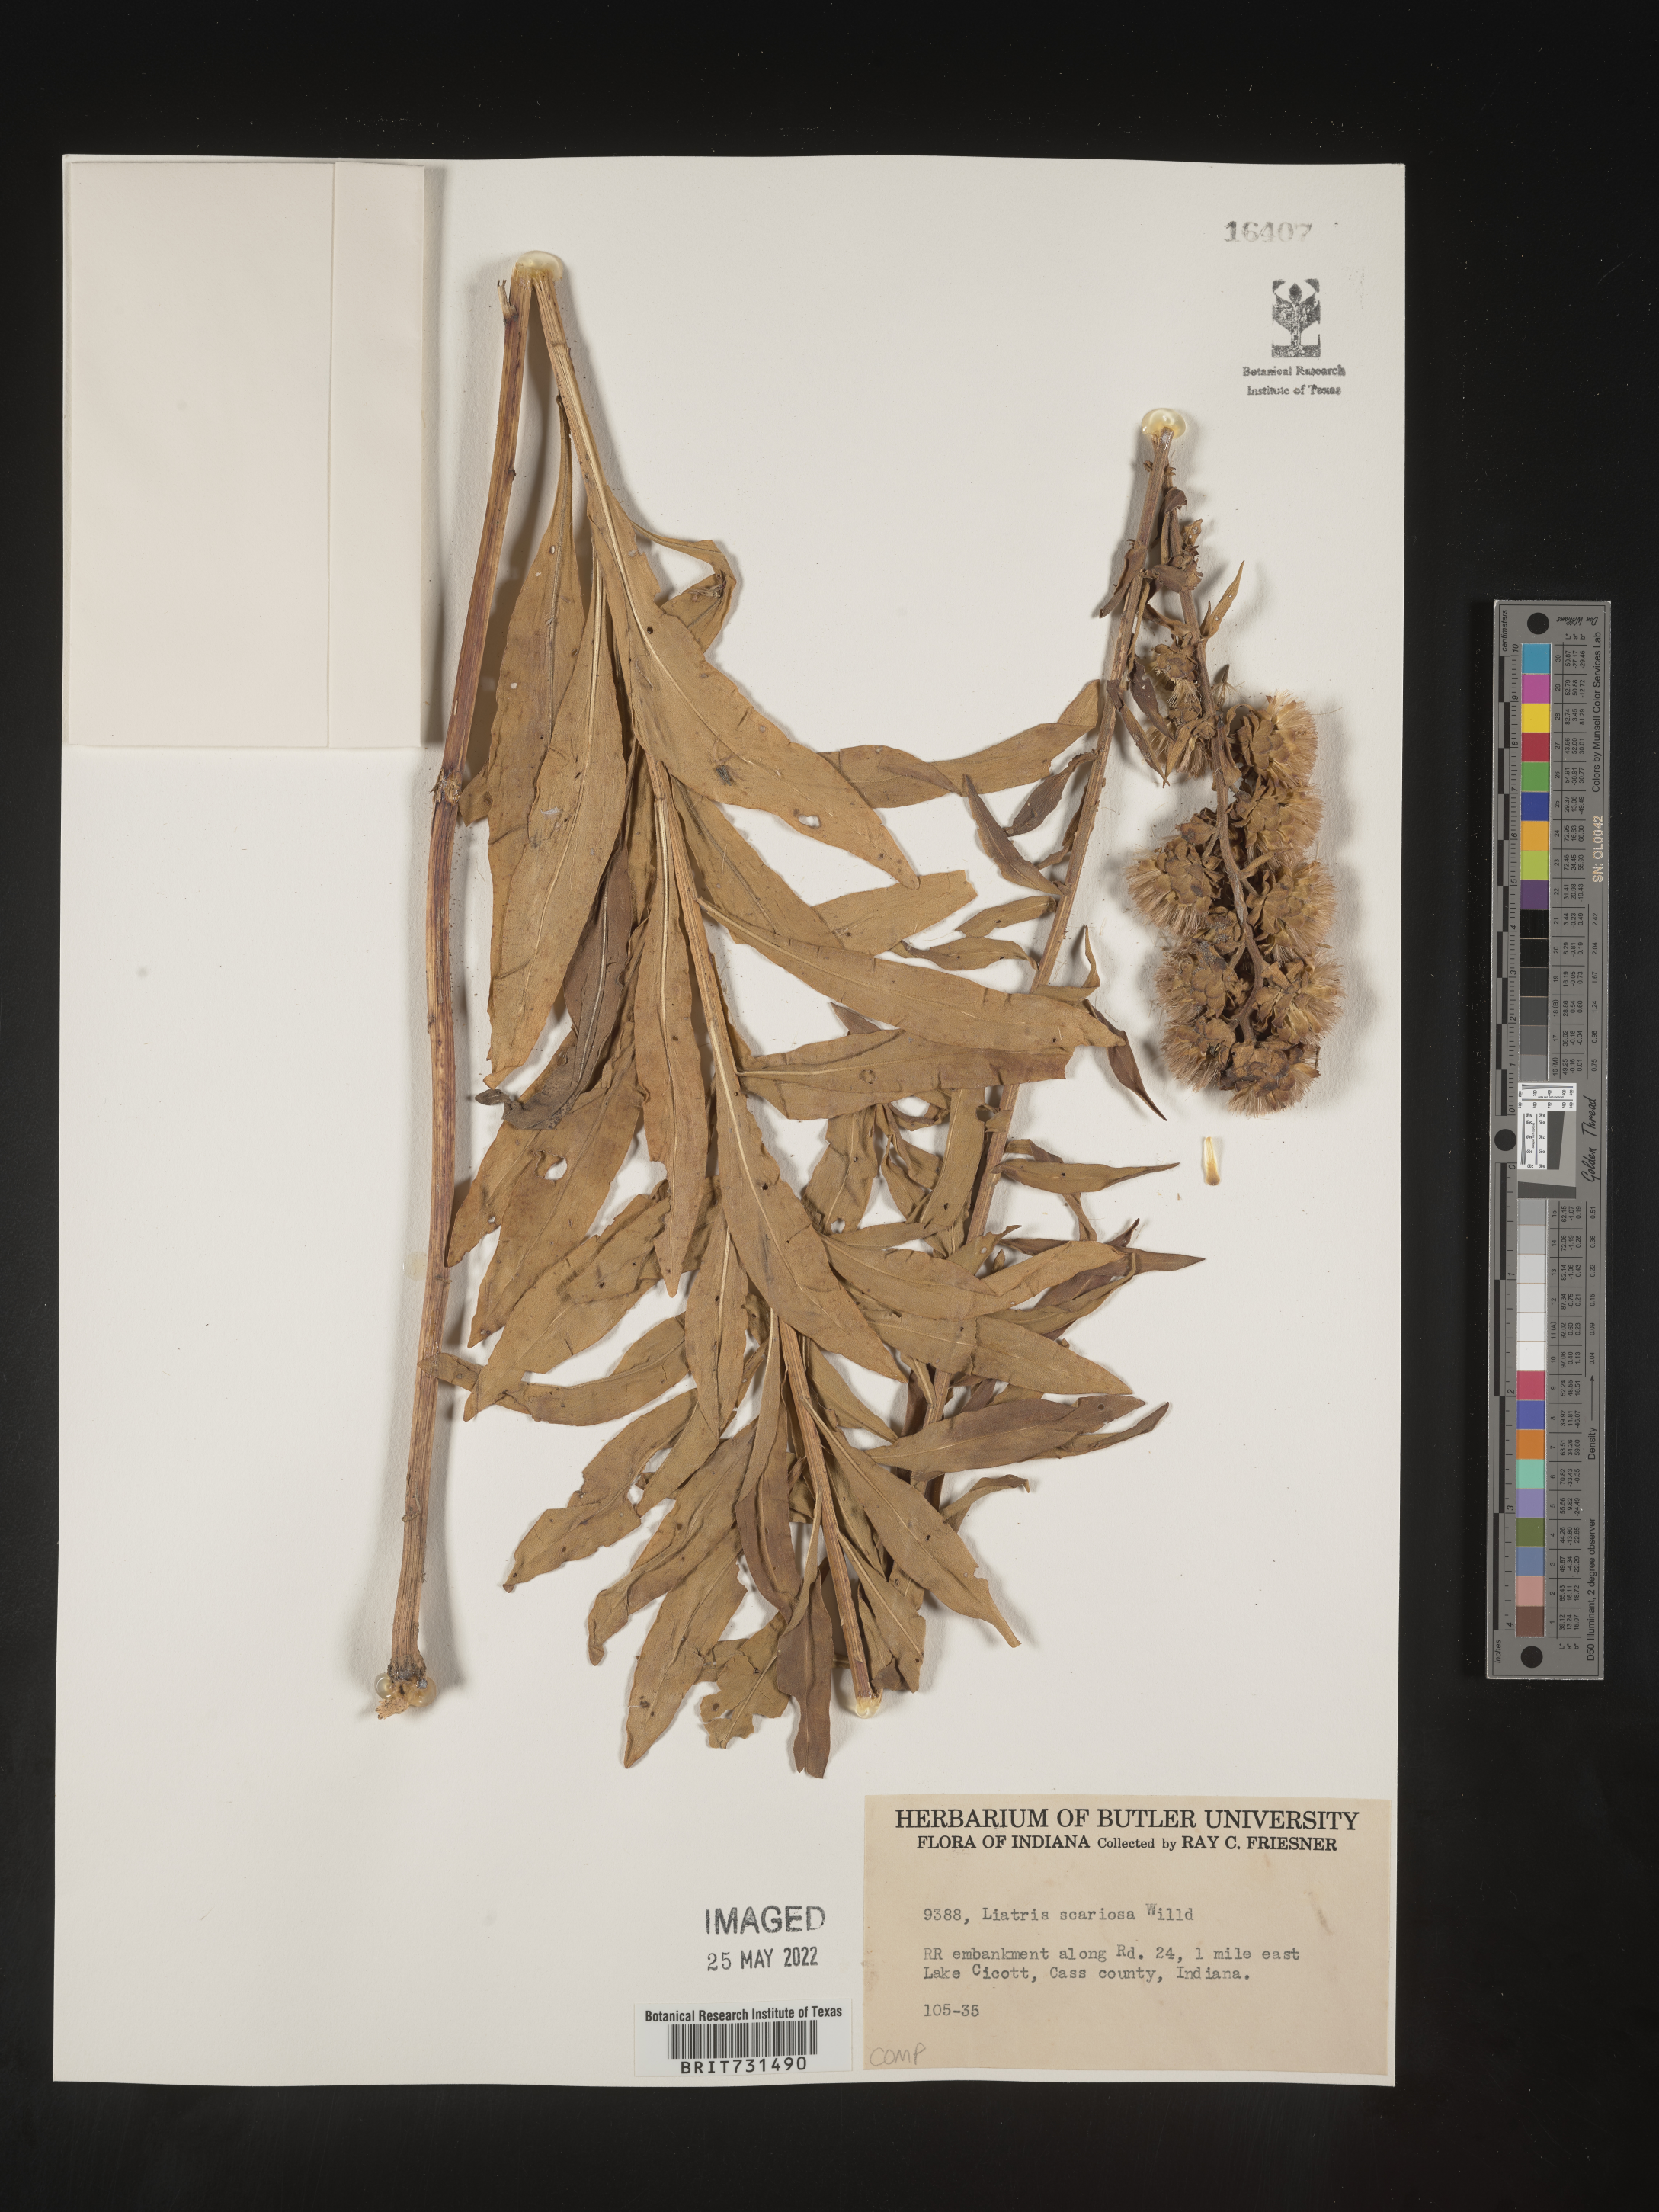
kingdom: Plantae
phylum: Tracheophyta
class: Magnoliopsida
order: Asterales
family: Asteraceae
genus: Liatris
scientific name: Liatris squarrulosa
